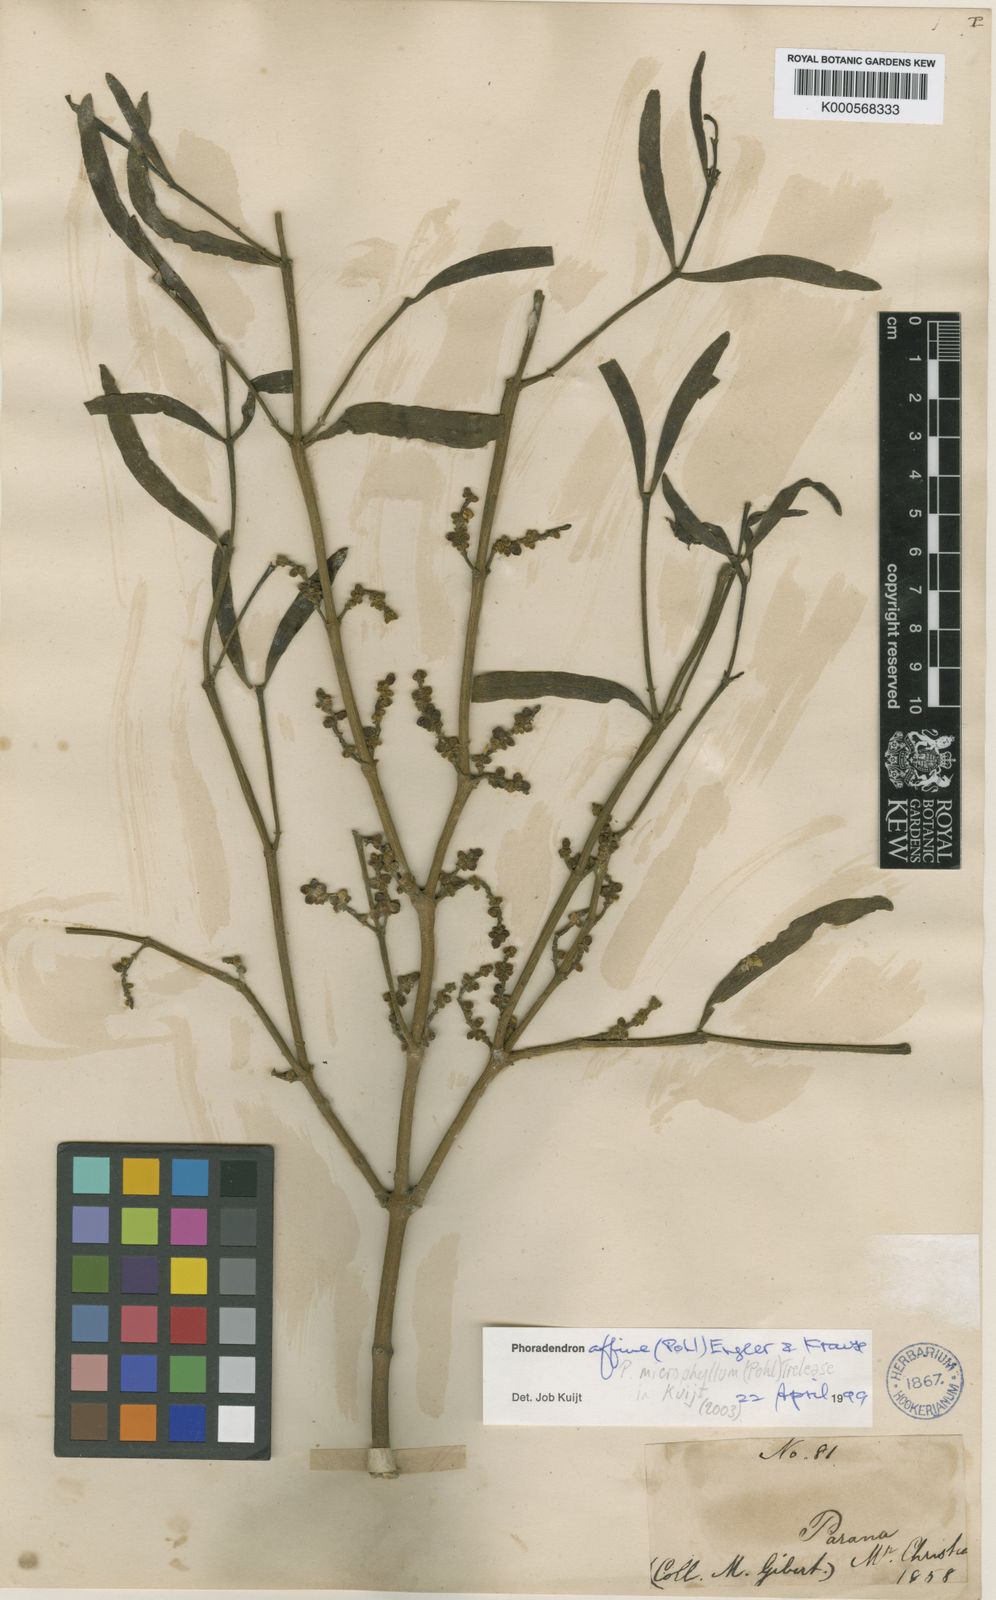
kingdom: Plantae
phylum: Tracheophyta
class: Magnoliopsida
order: Santalales
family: Viscaceae
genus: Phoradendron
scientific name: Phoradendron affine
